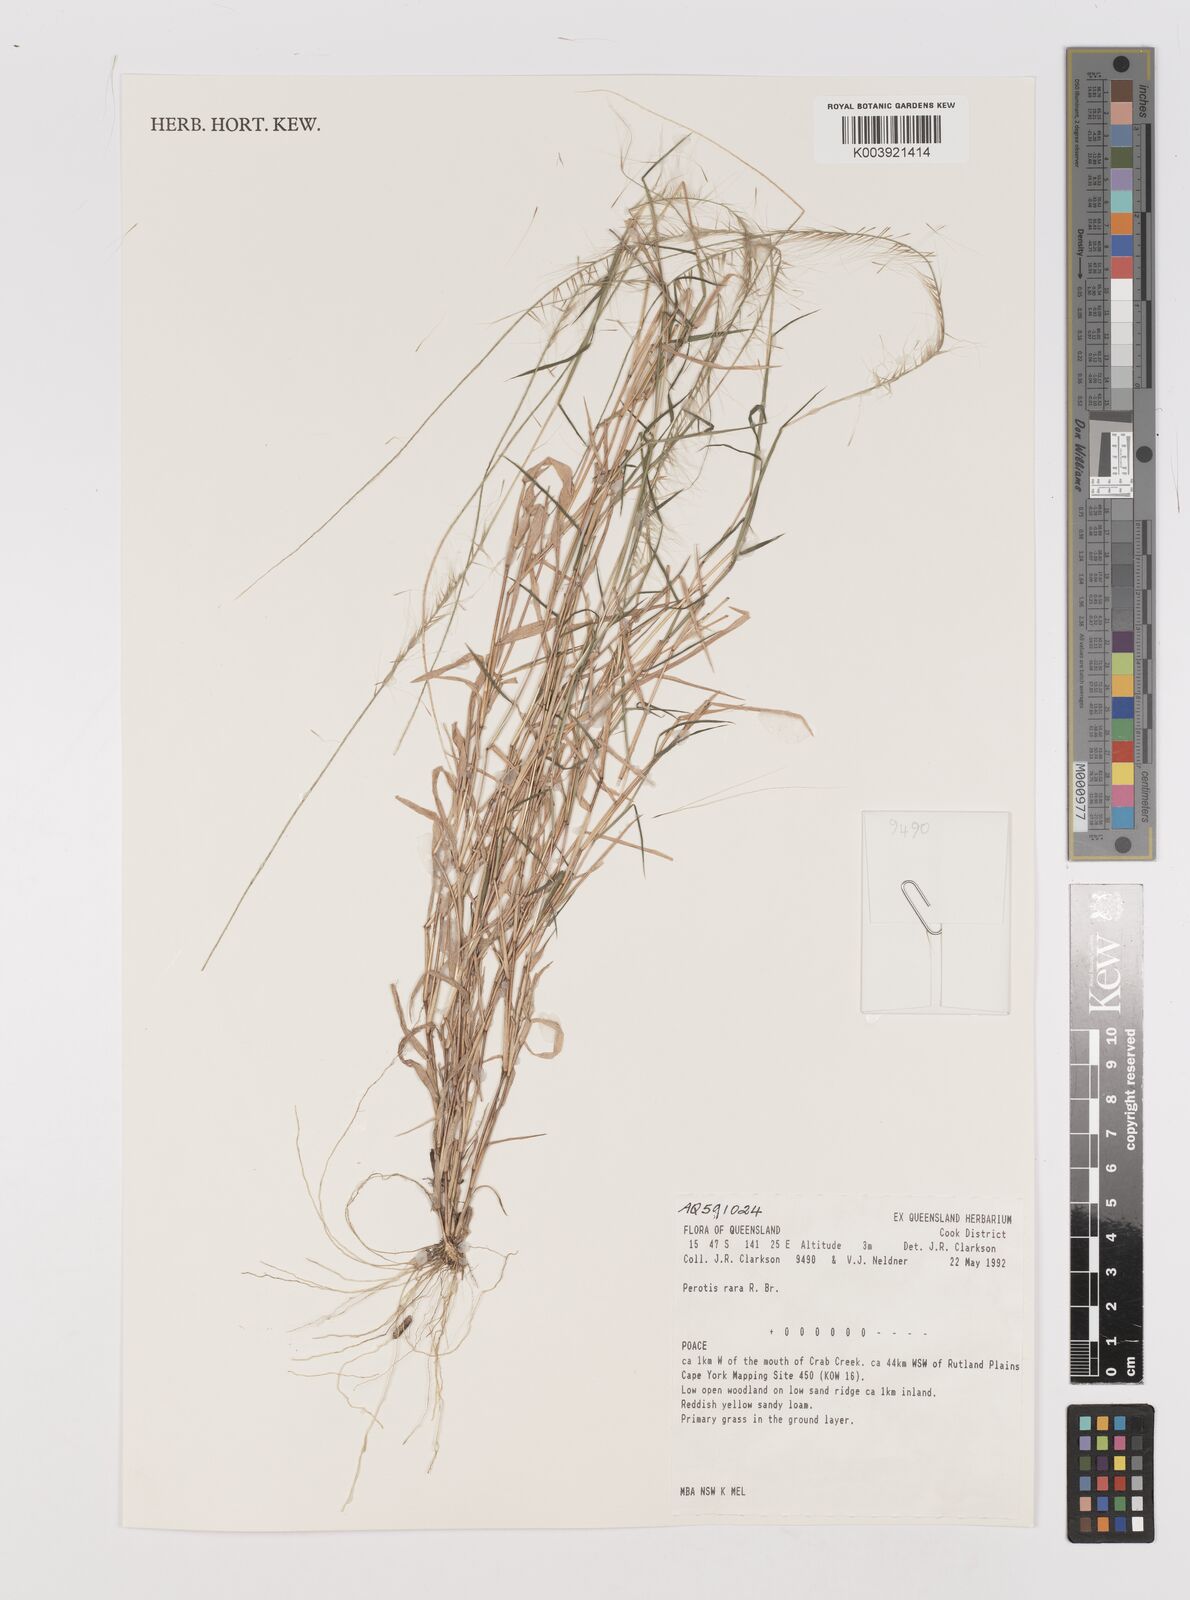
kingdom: Plantae
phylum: Tracheophyta
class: Liliopsida
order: Poales
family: Poaceae
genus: Perotis
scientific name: Perotis rara
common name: Comet grass
